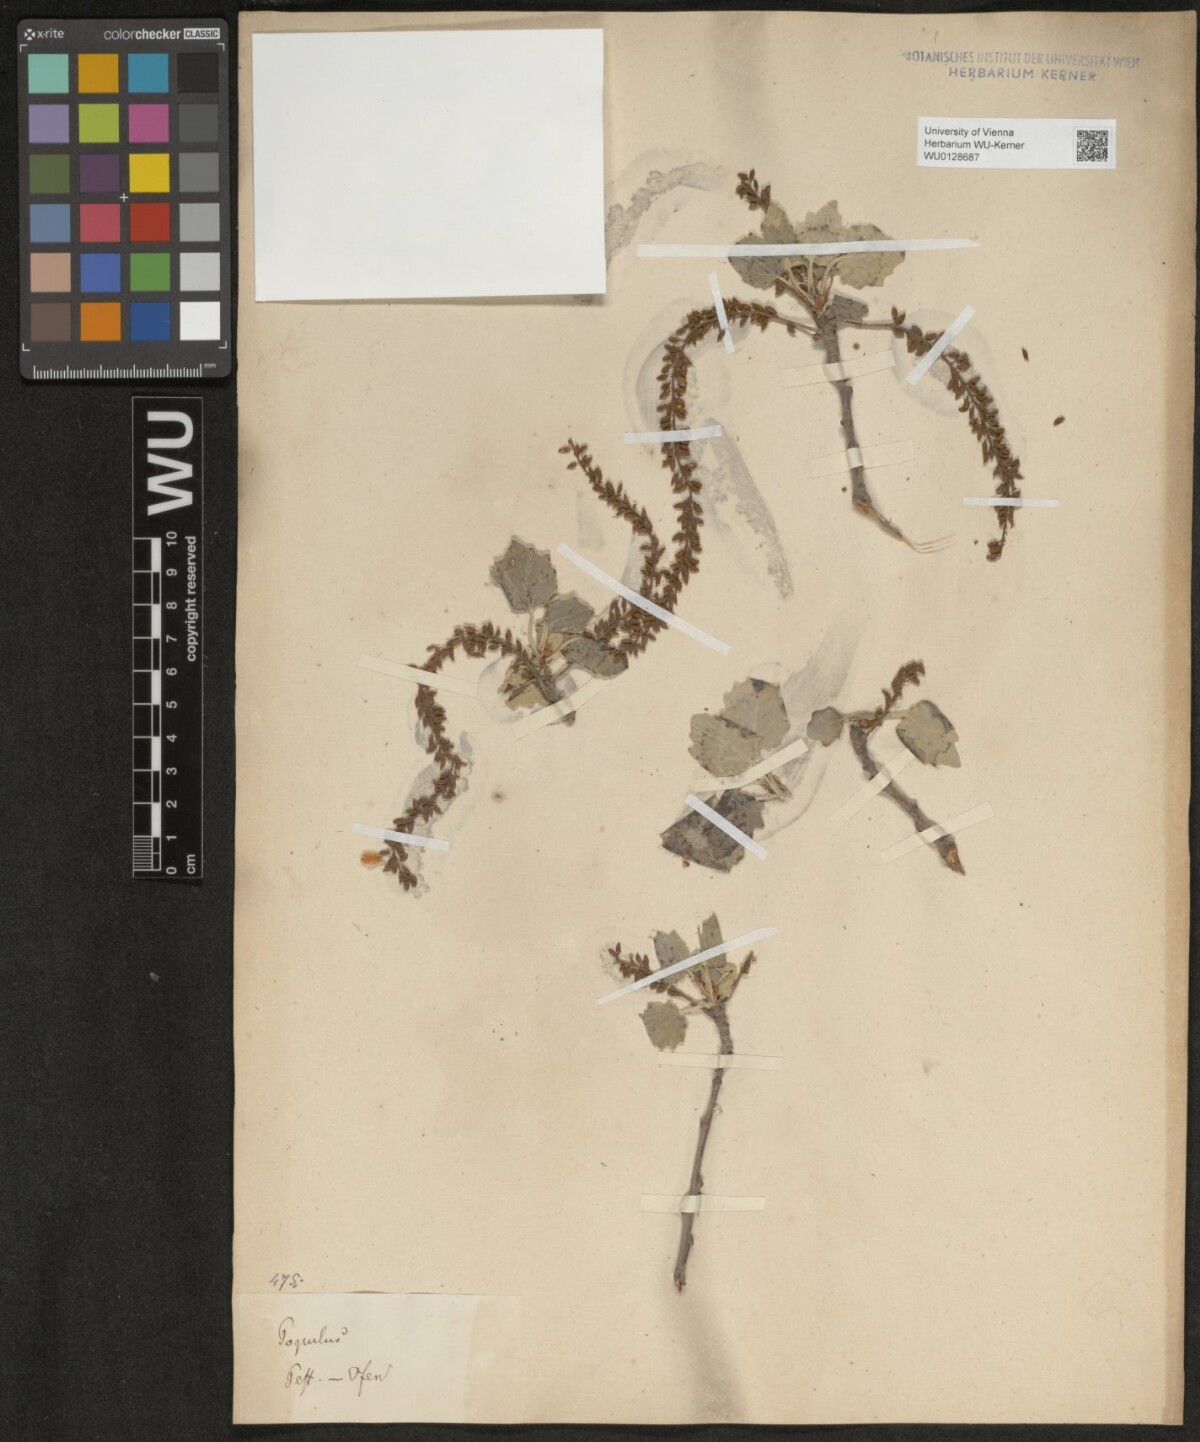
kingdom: Plantae
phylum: Tracheophyta
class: Magnoliopsida
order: Malpighiales
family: Salicaceae
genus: Populus
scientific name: Populus alba
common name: White poplar
